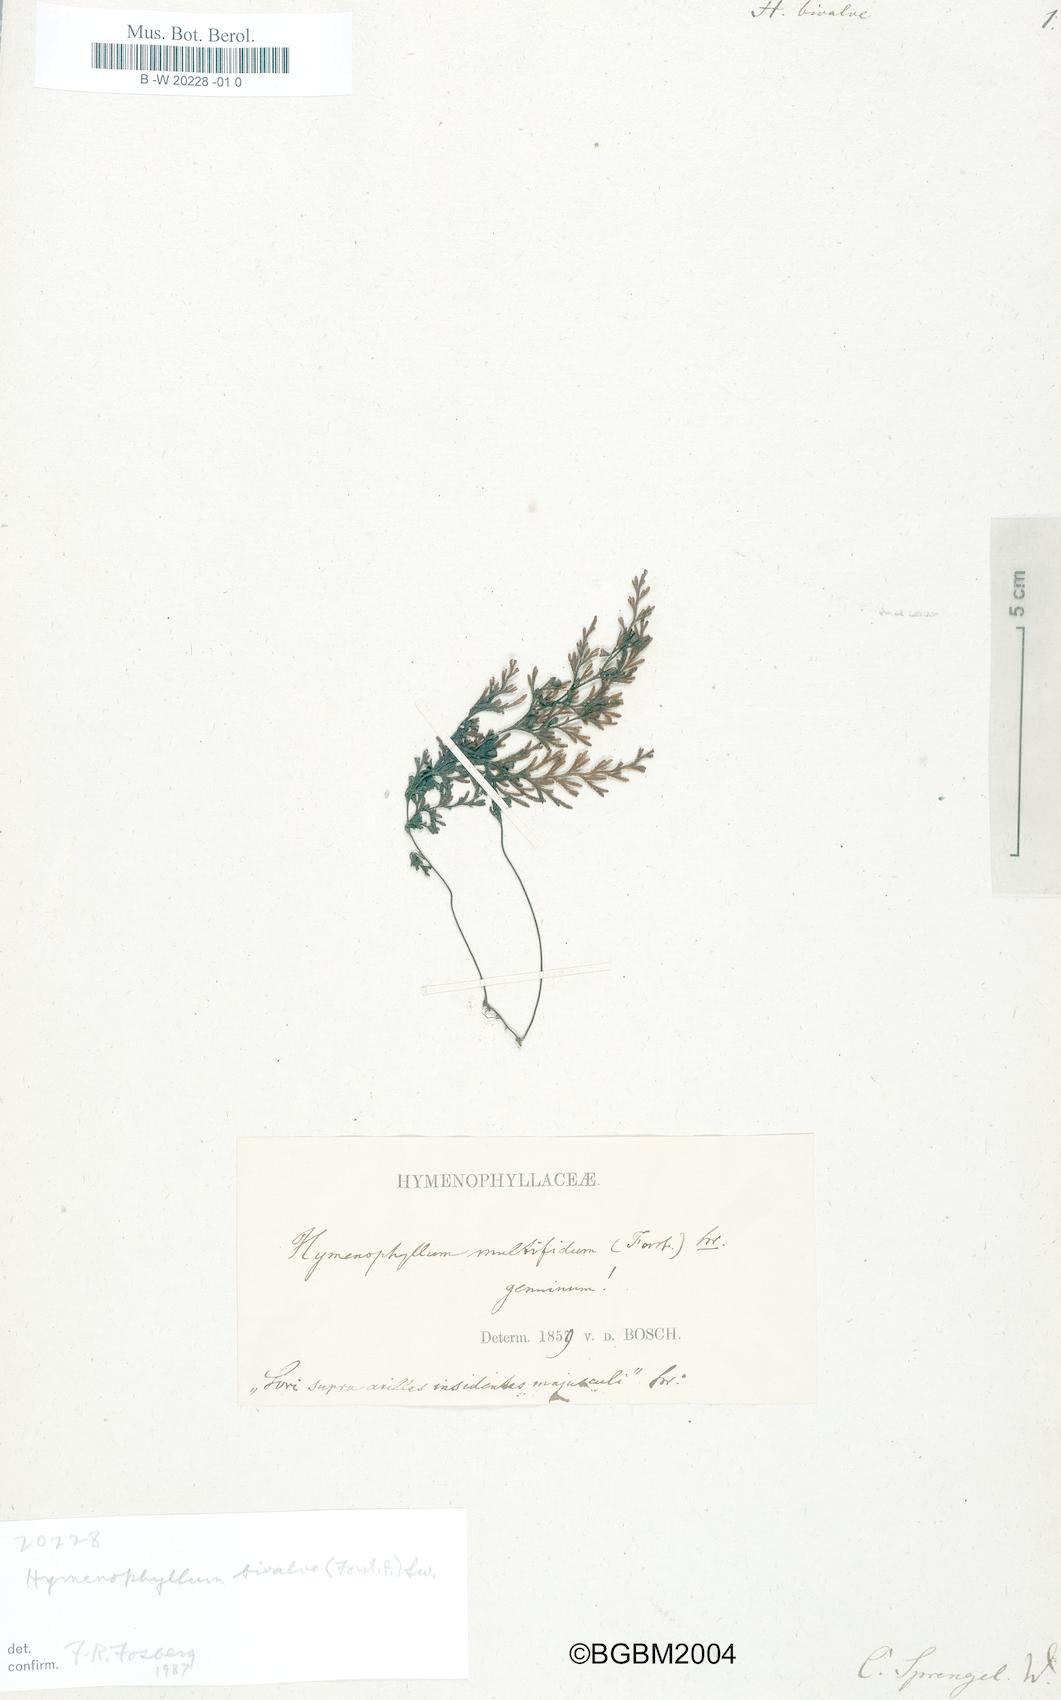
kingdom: Plantae
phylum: Tracheophyta
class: Polypodiopsida
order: Hymenophyllales
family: Hymenophyllaceae
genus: Hymenophyllum
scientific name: Hymenophyllum bivalve
